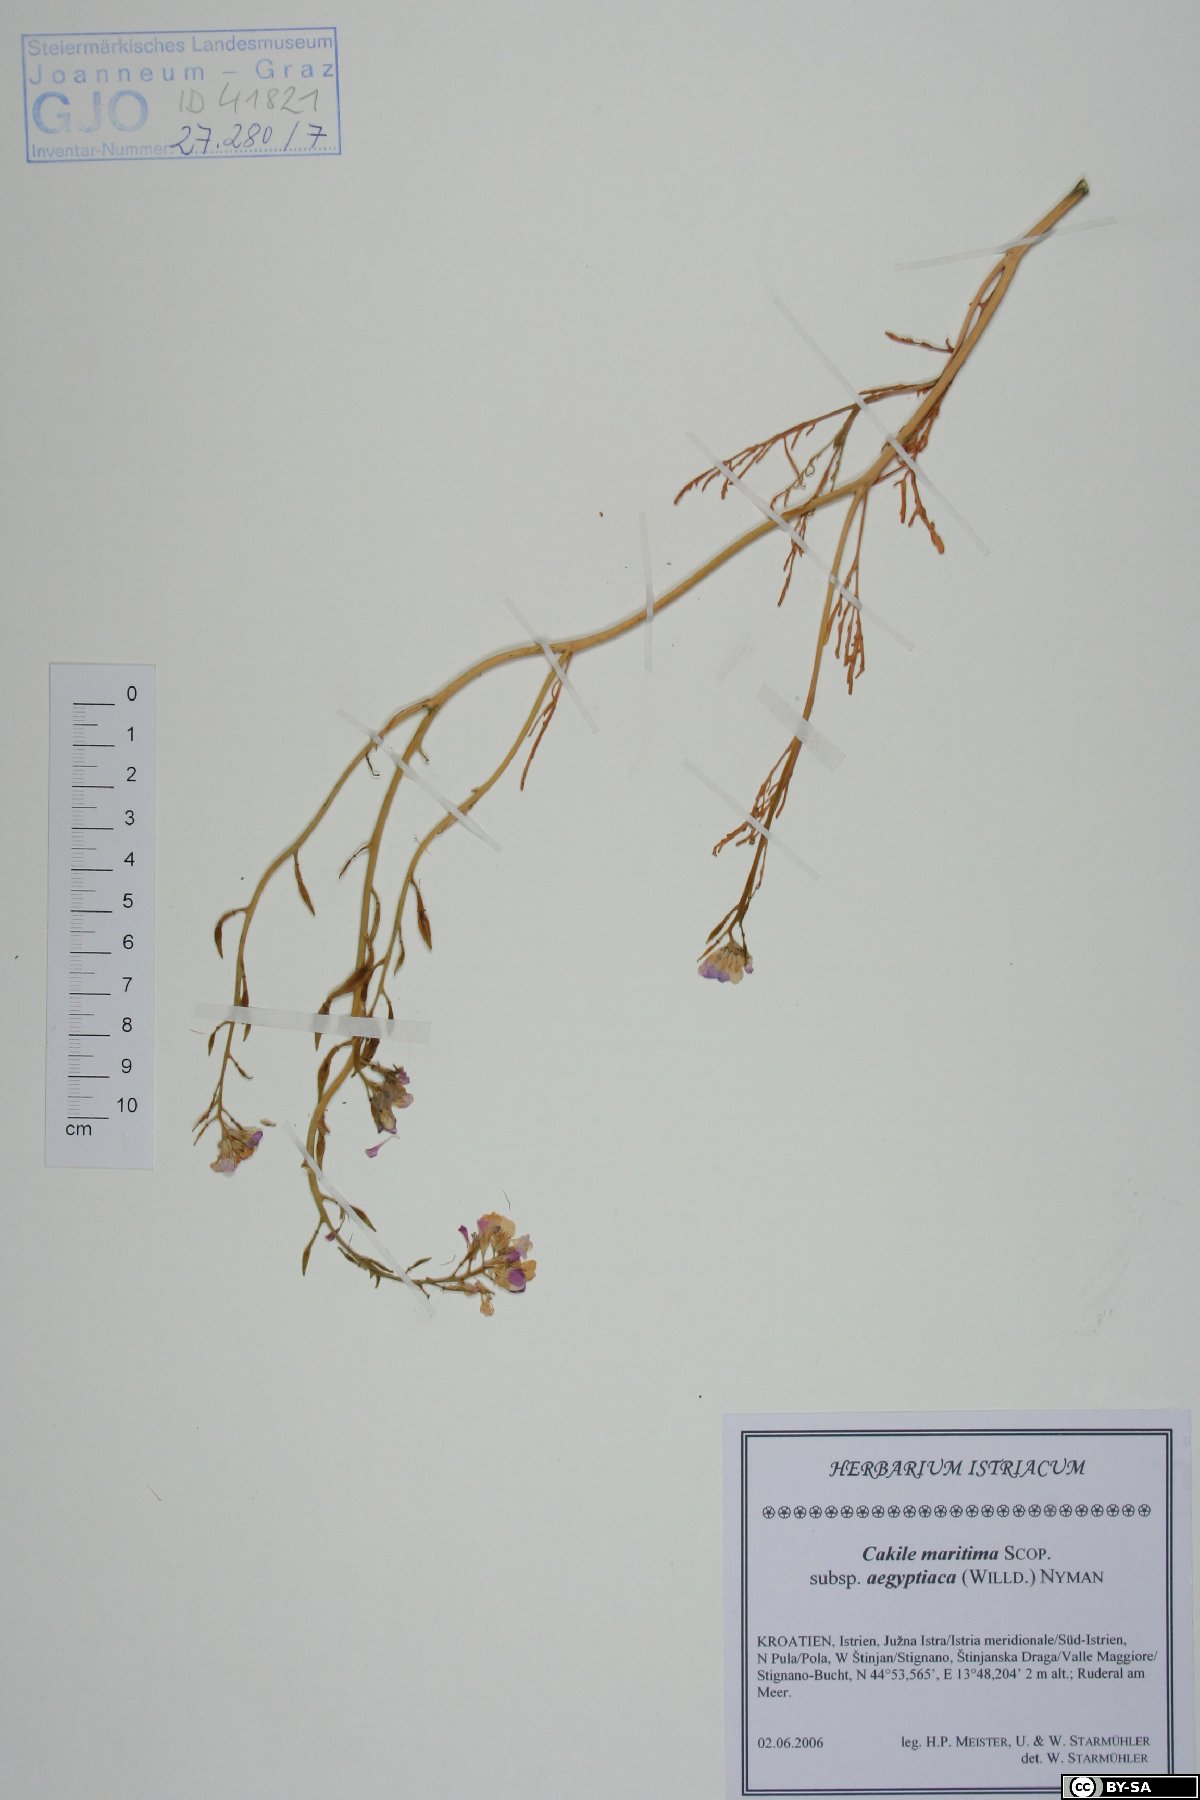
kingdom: Plantae
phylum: Tracheophyta
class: Magnoliopsida
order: Brassicales
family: Brassicaceae
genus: Cakile
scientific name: Cakile maritima
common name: Sea rocket
